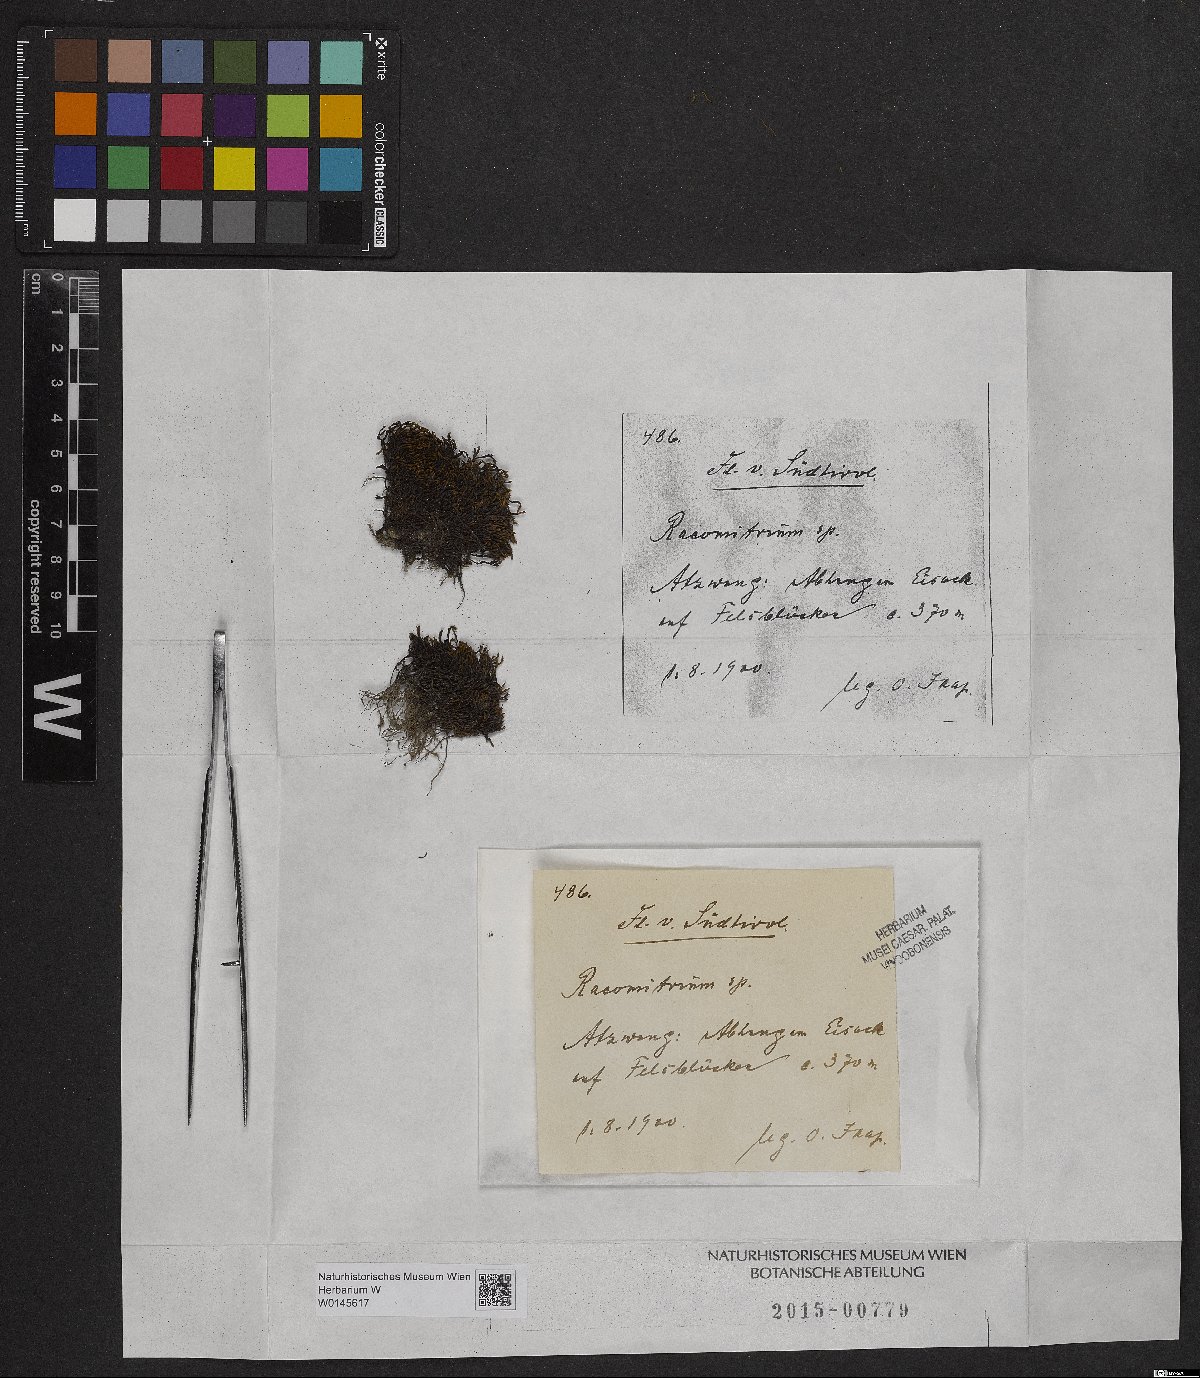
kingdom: Plantae
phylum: Bryophyta
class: Bryopsida
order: Grimmiales
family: Grimmiaceae
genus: Racomitrium
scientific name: Racomitrium
